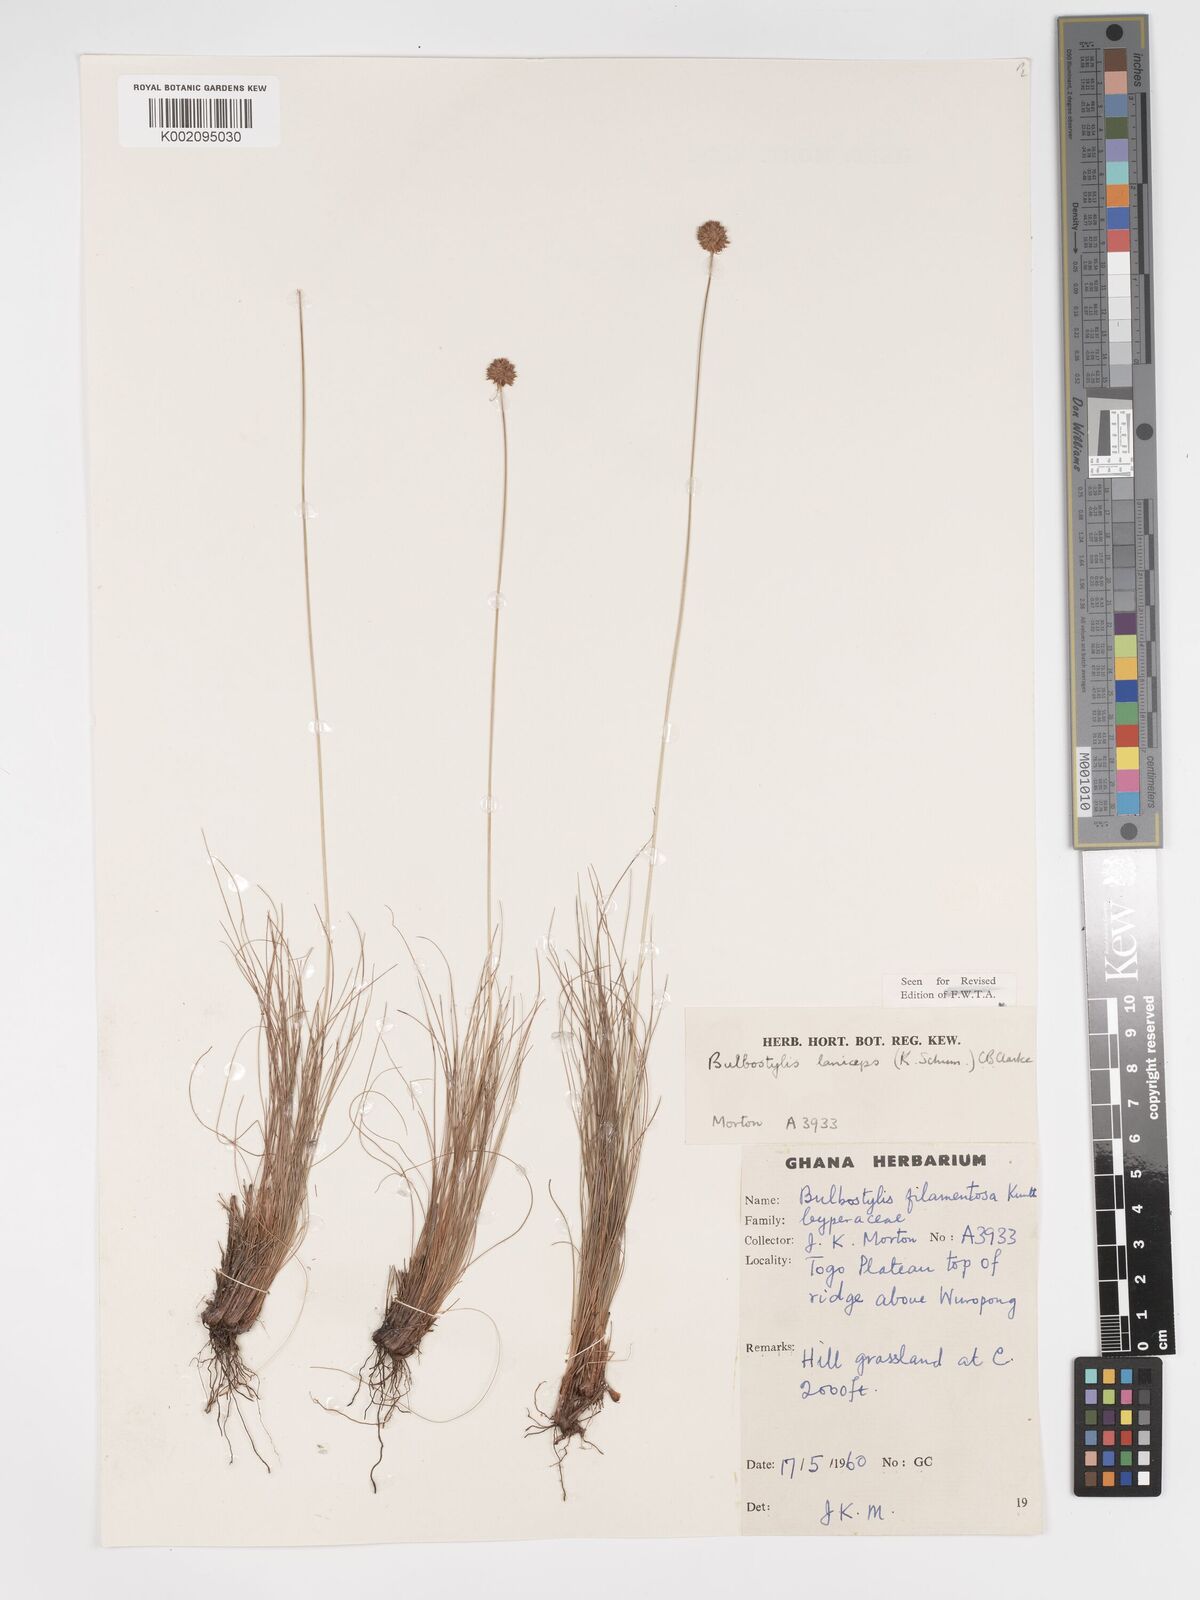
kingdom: Plantae
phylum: Tracheophyta
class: Liliopsida
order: Poales
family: Cyperaceae
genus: Bulbostylis
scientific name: Bulbostylis laniceps
